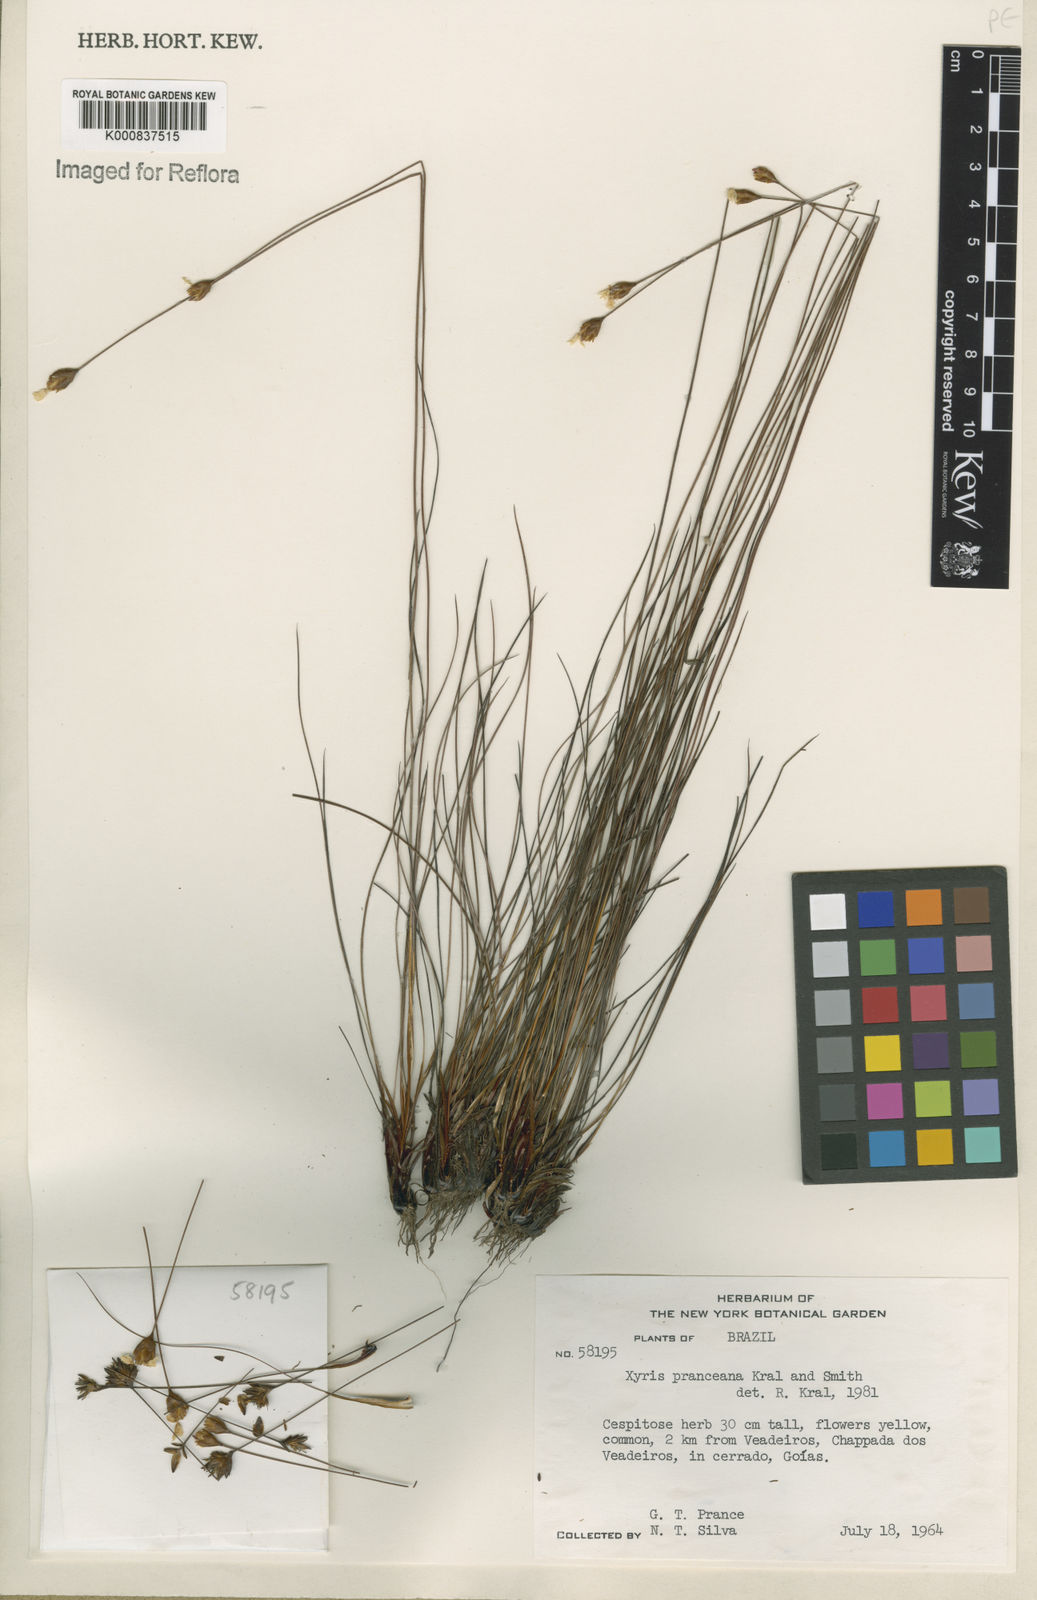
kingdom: Plantae
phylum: Tracheophyta
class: Liliopsida
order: Poales
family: Xyridaceae
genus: Xyris
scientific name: Xyris pranceana
